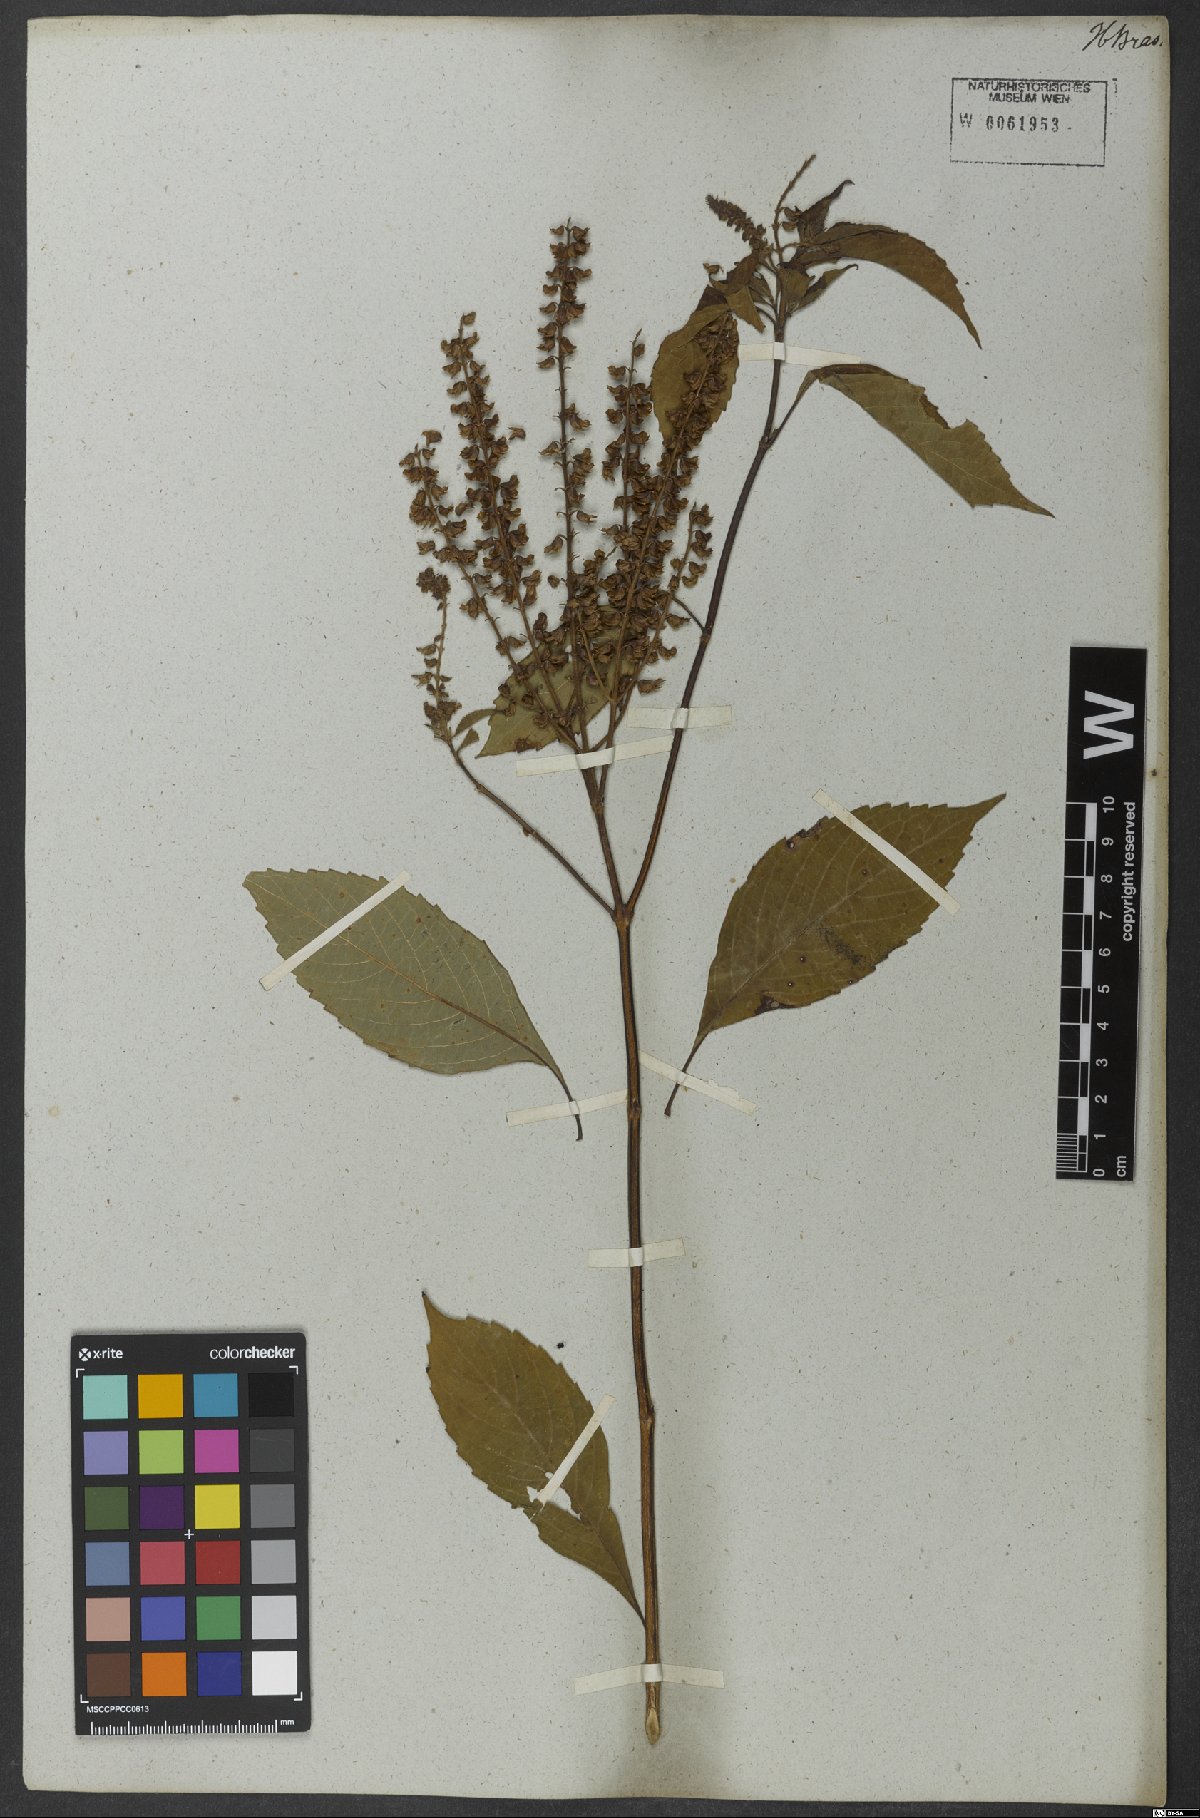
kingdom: Plantae
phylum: Tracheophyta
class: Magnoliopsida
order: Lamiales
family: Lamiaceae
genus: Ocimum
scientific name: Ocimum gratissimum
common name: African basil
